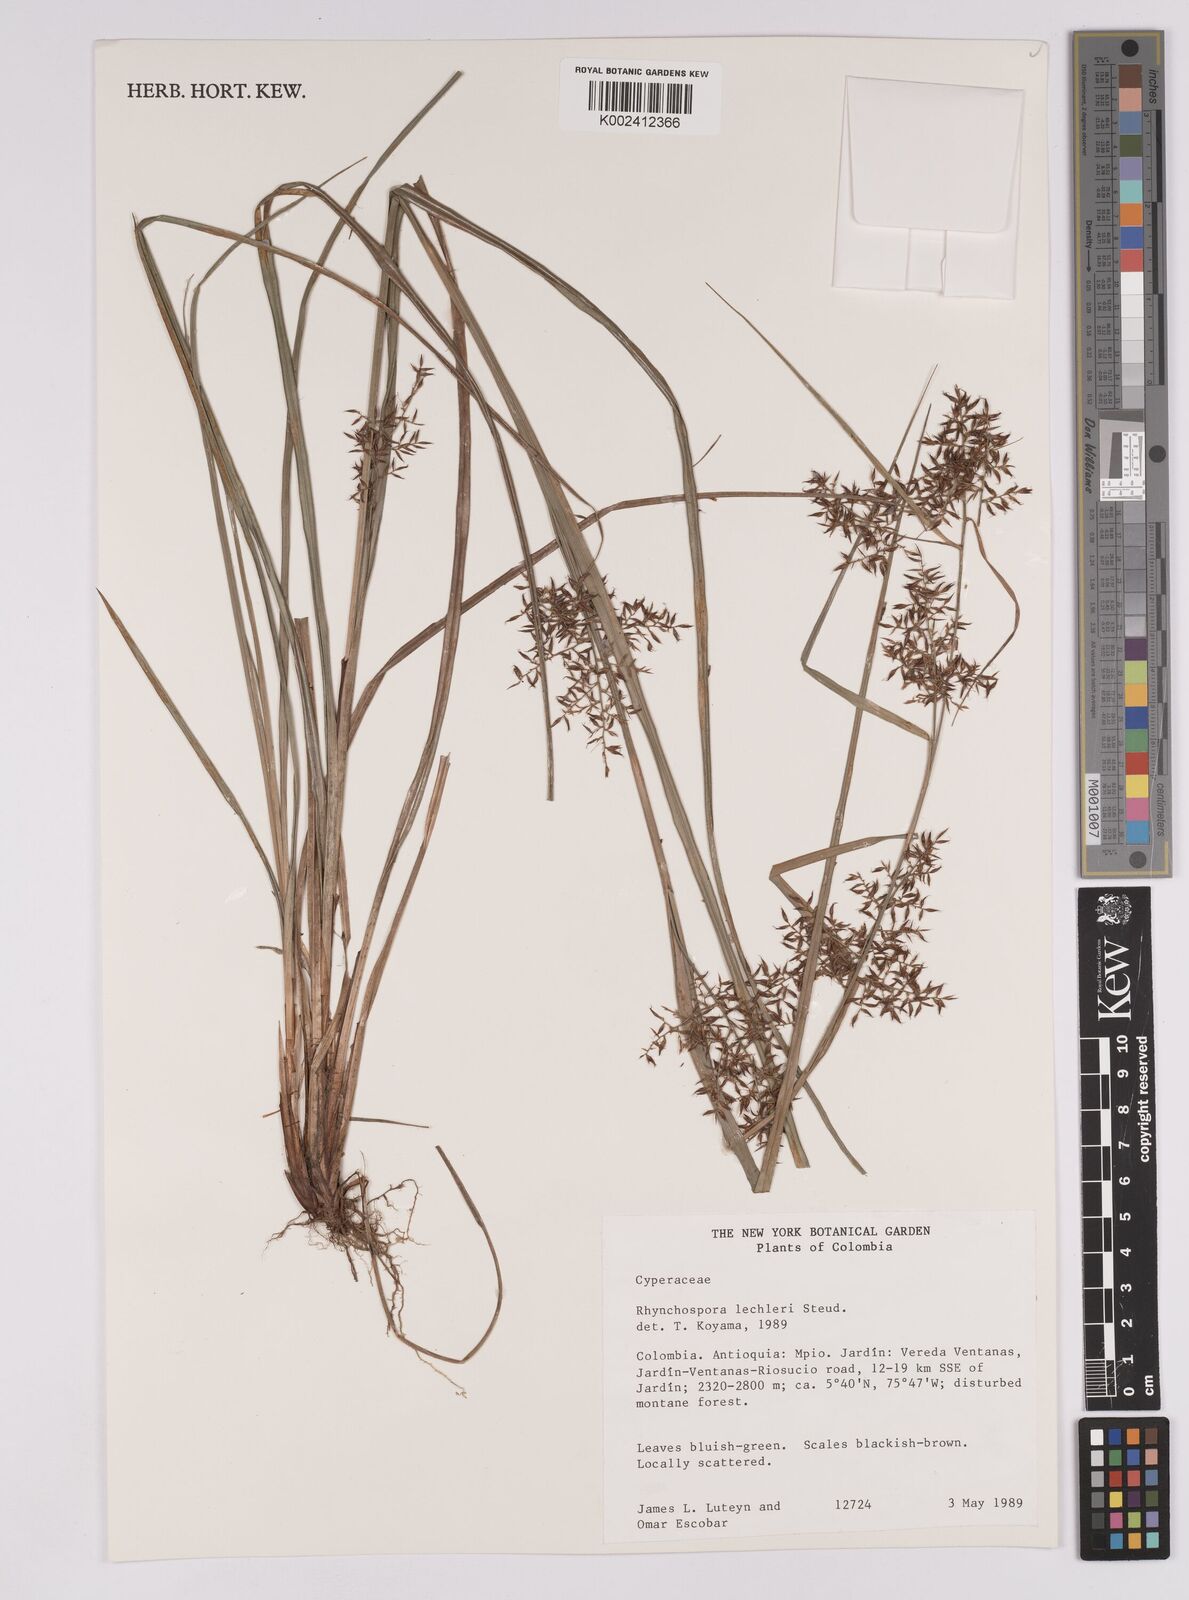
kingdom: Plantae
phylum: Tracheophyta
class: Liliopsida
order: Poales
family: Cyperaceae
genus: Rhynchospora
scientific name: Rhynchospora macrochaeta
